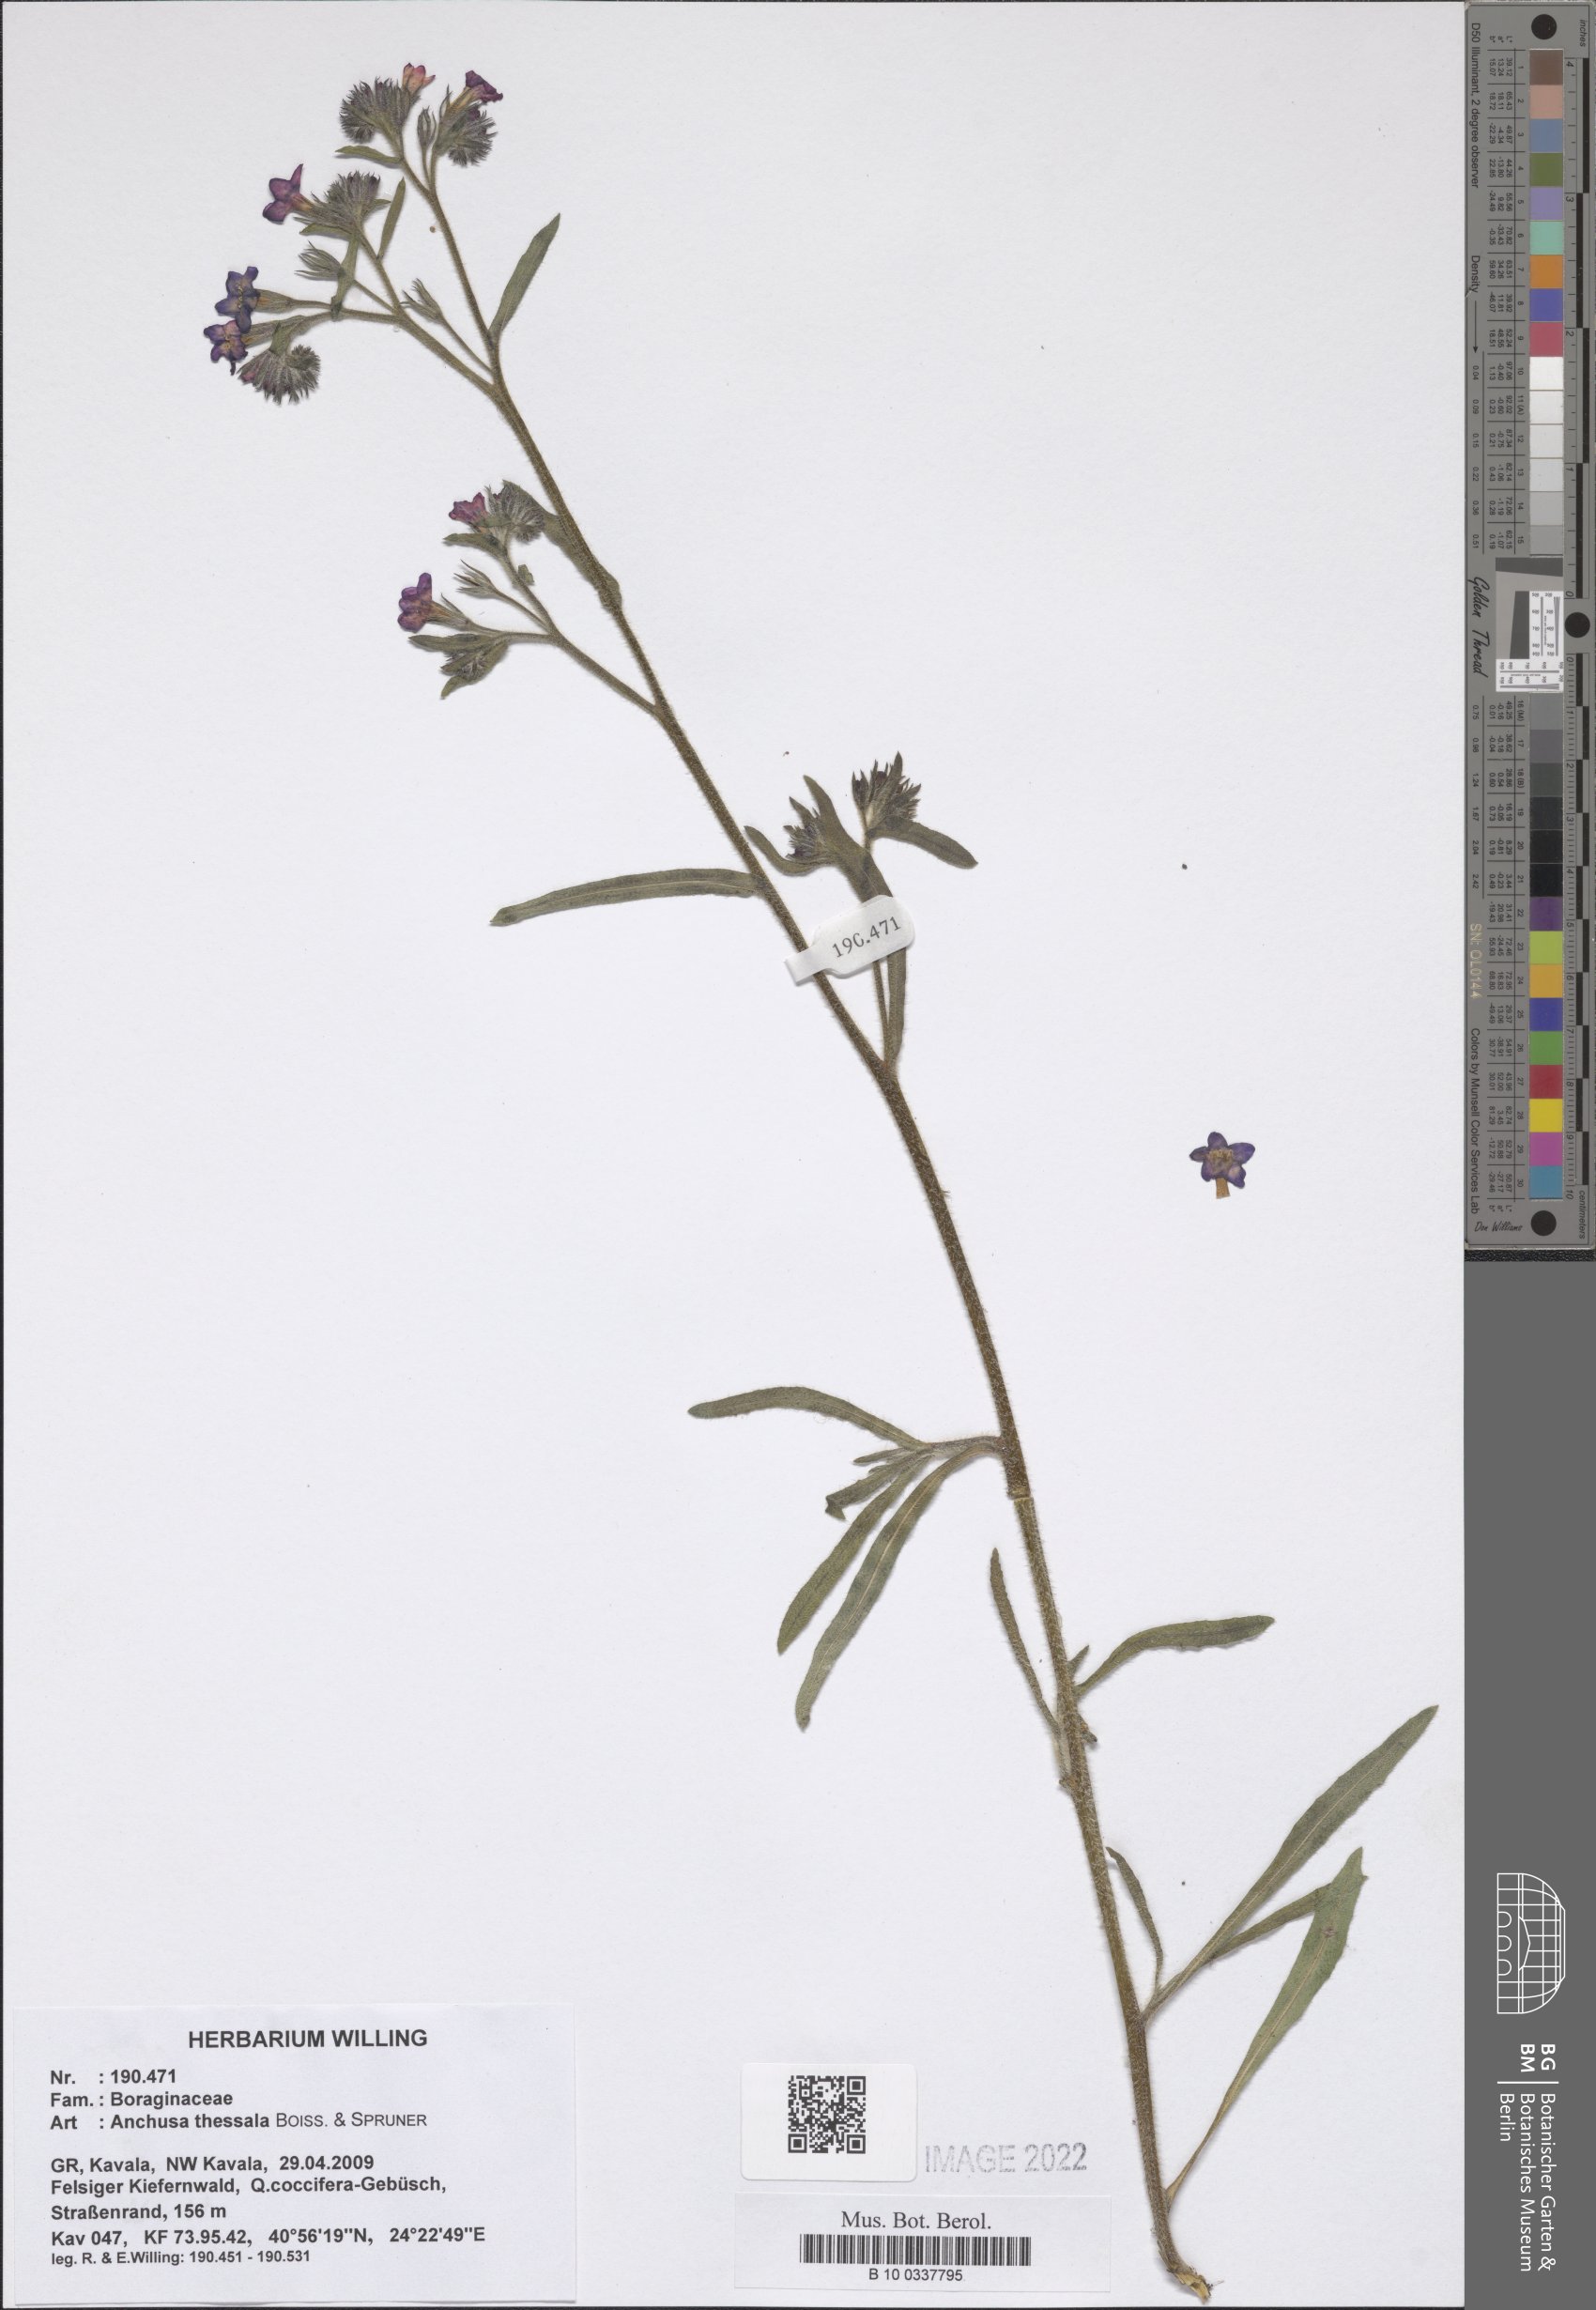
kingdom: Plantae
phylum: Tracheophyta
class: Magnoliopsida
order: Boraginales
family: Boraginaceae
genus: Anchusa
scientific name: Anchusa thessala
